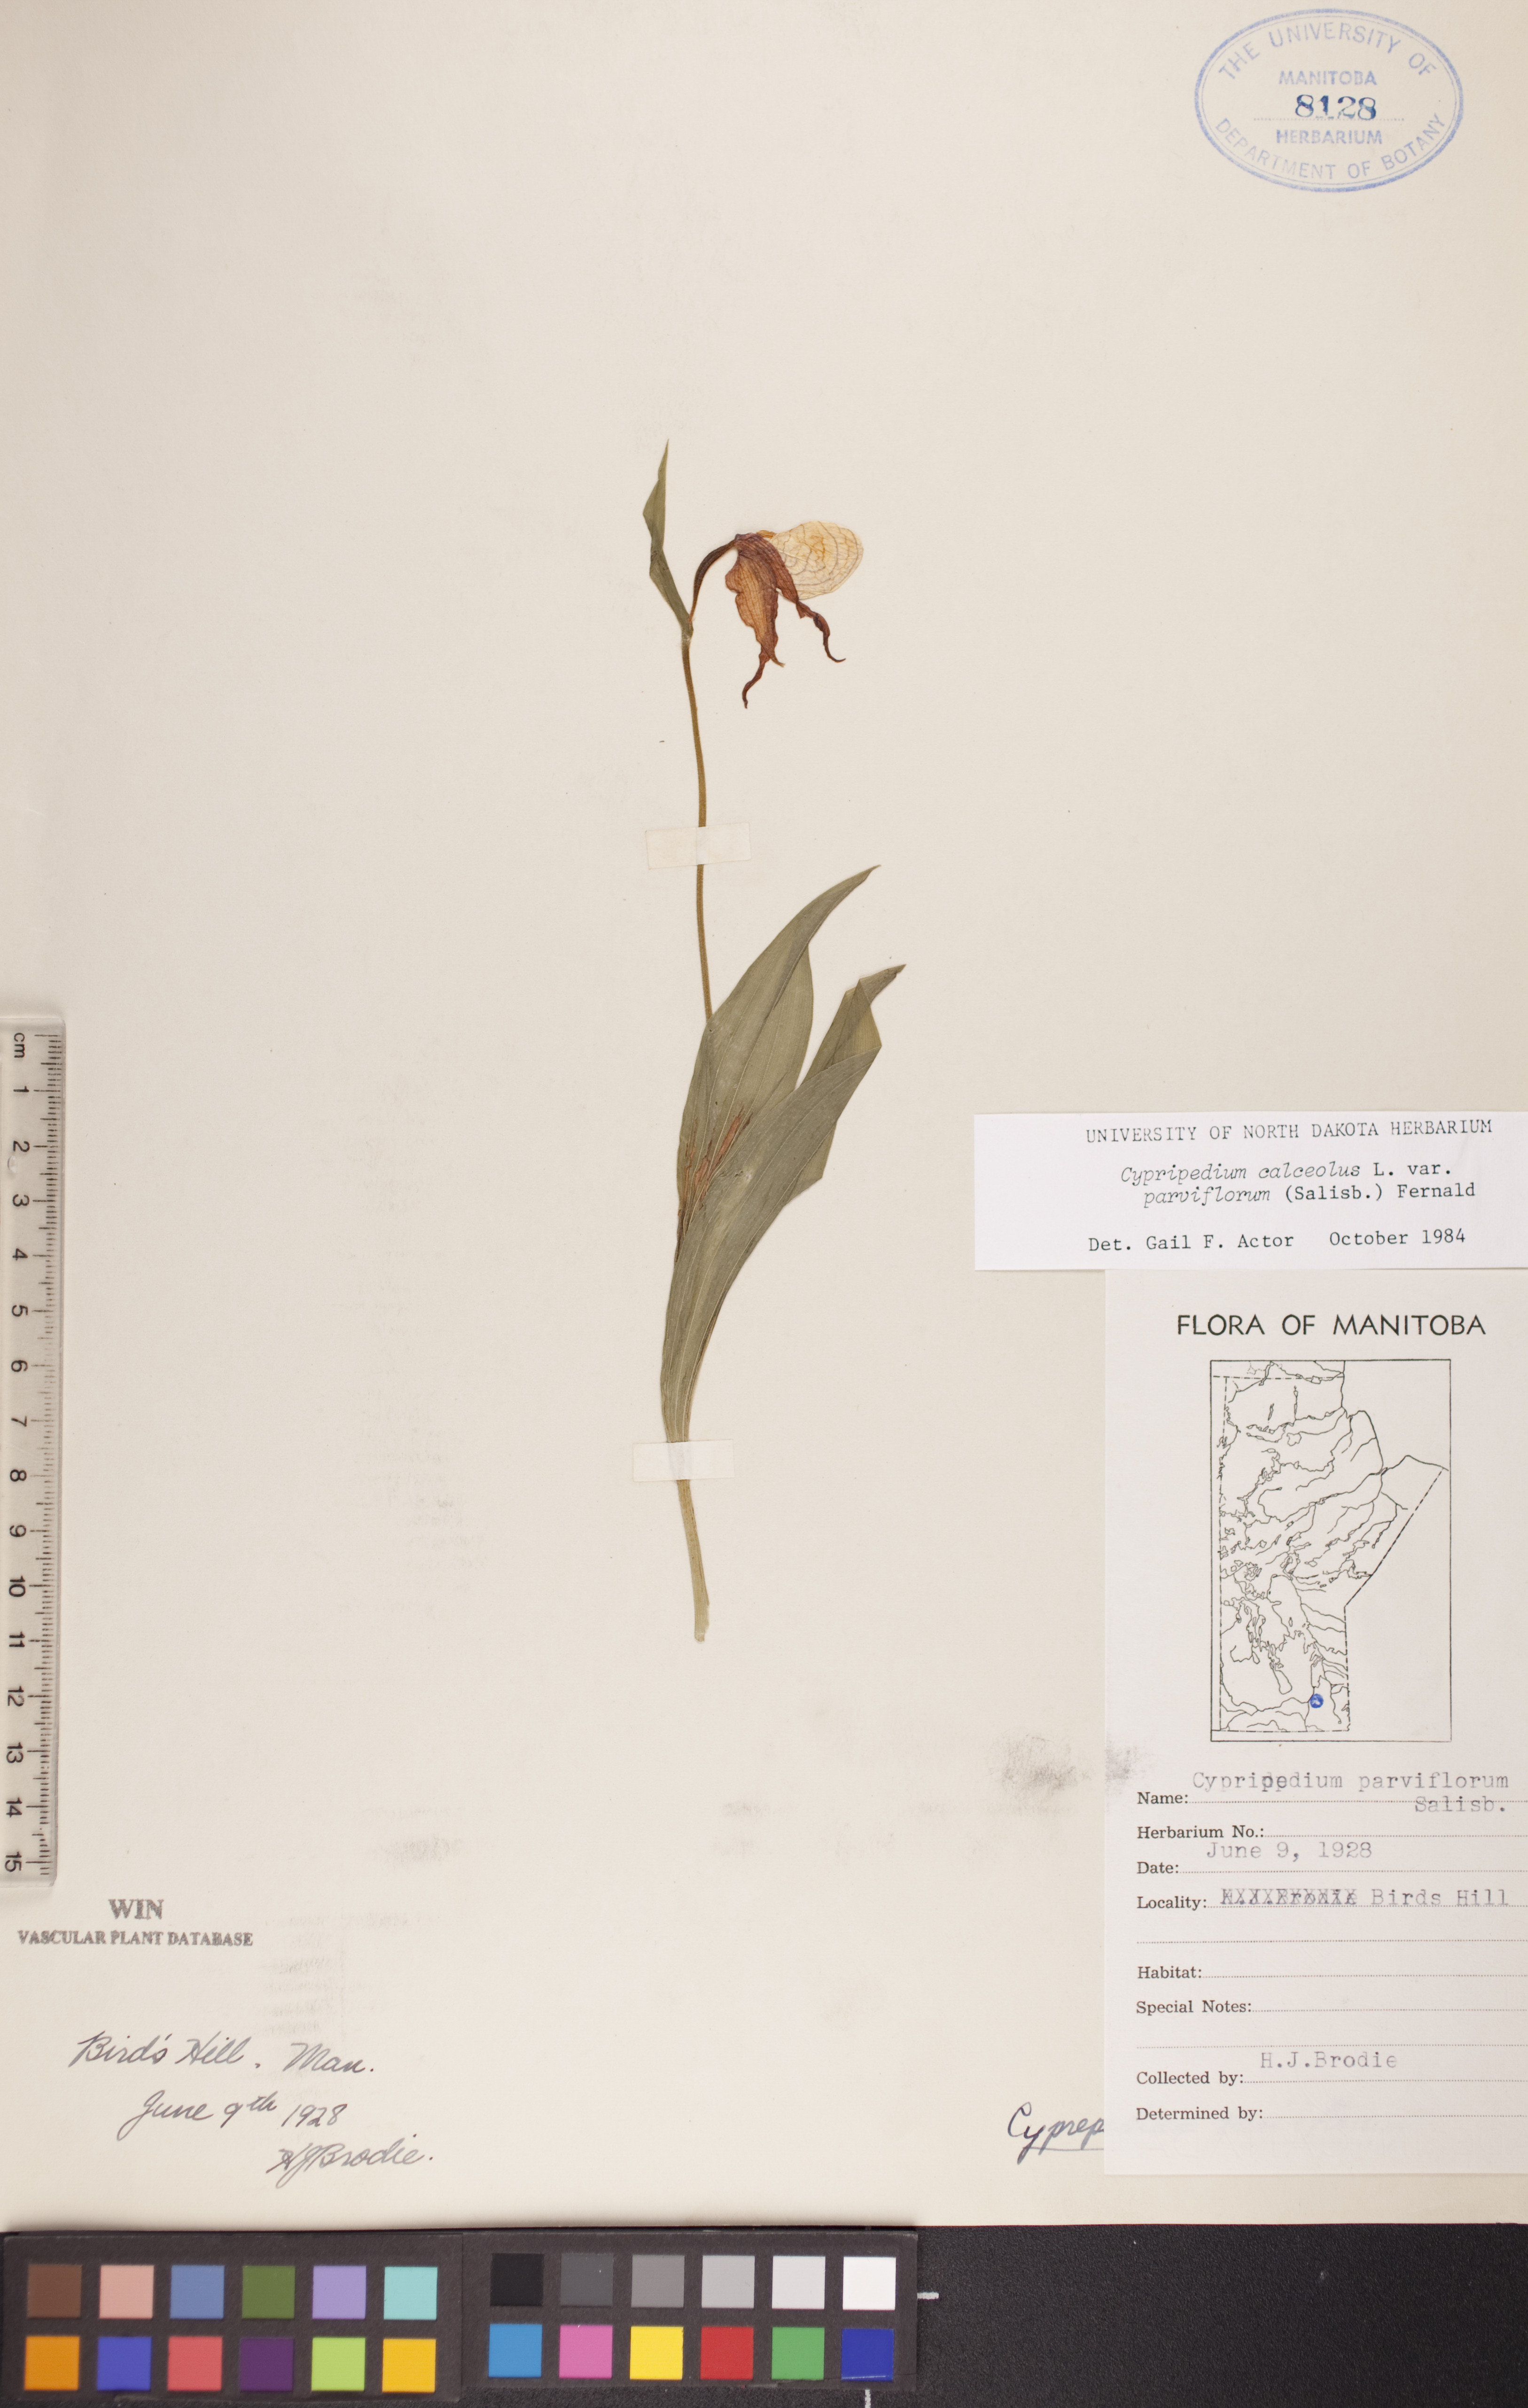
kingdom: Plantae
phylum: Tracheophyta
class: Liliopsida
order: Asparagales
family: Orchidaceae
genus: Cypripedium
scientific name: Cypripedium parviflorum
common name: American yellow lady's-slipper
